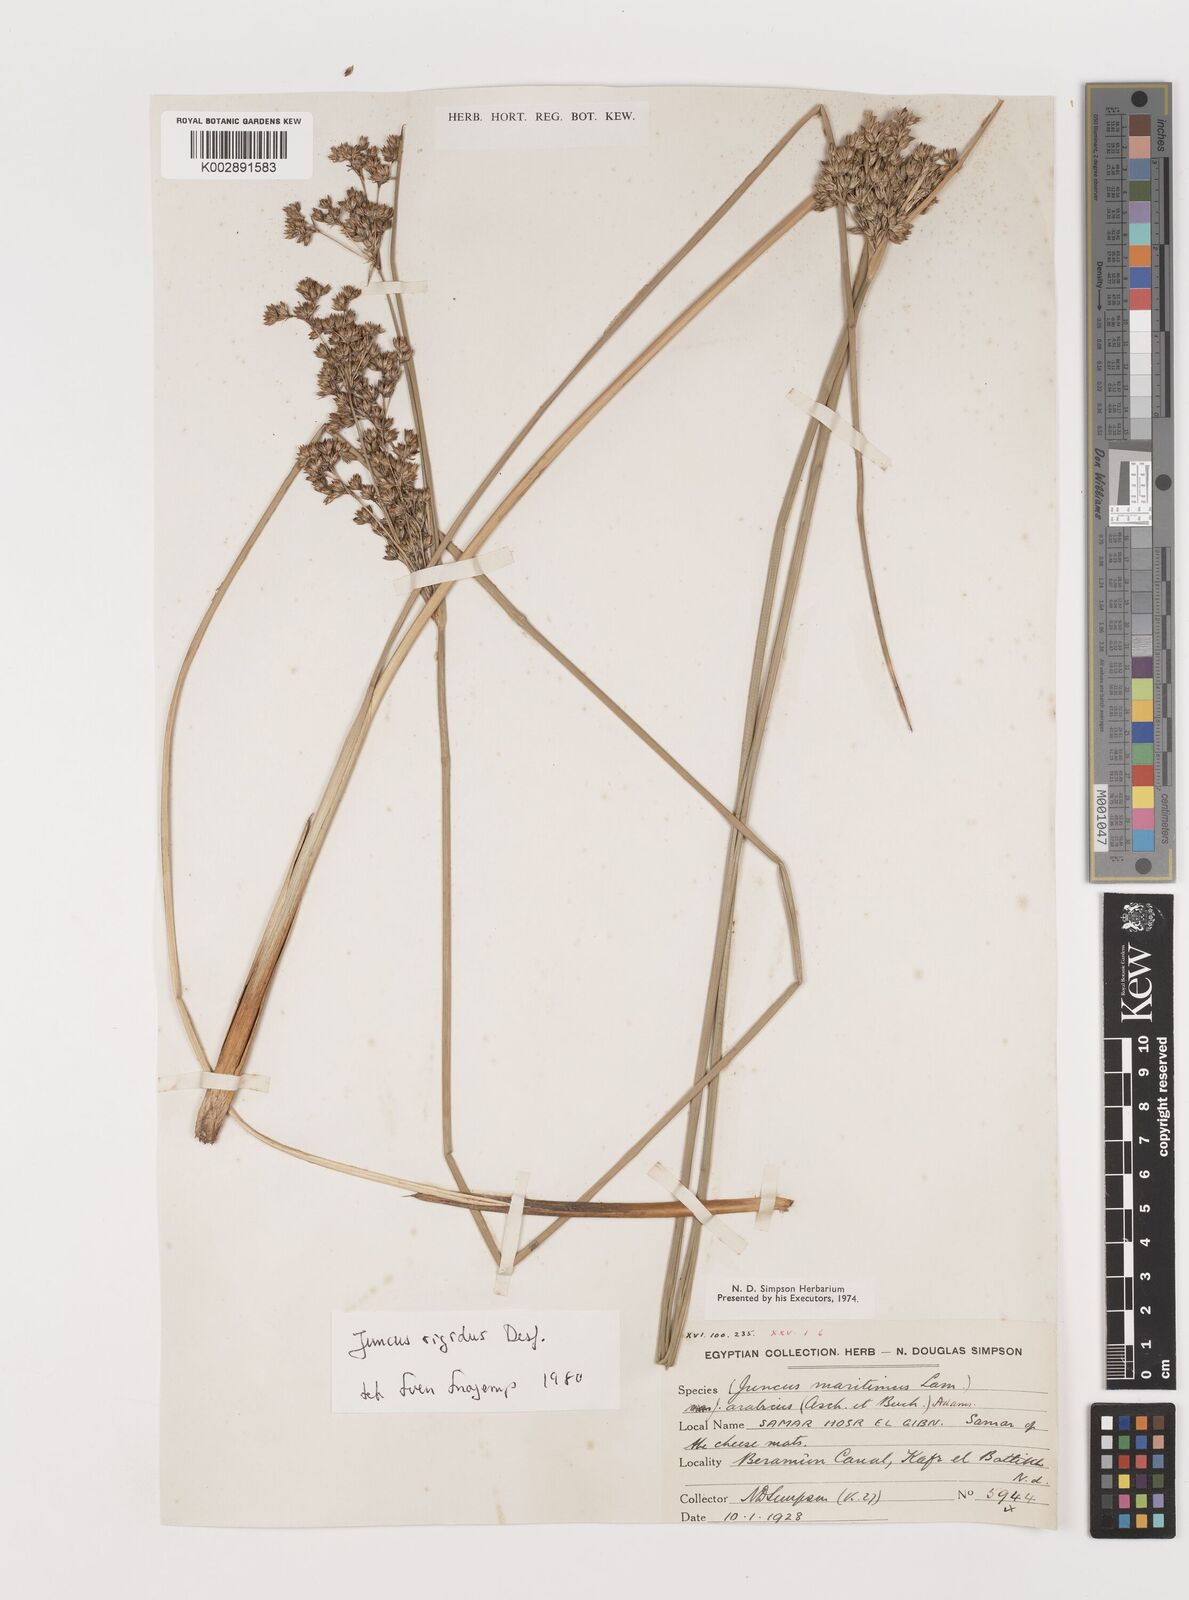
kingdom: Plantae
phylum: Tracheophyta
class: Liliopsida
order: Poales
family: Juncaceae
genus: Juncus
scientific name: Juncus rigidus
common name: Hard sea rush
